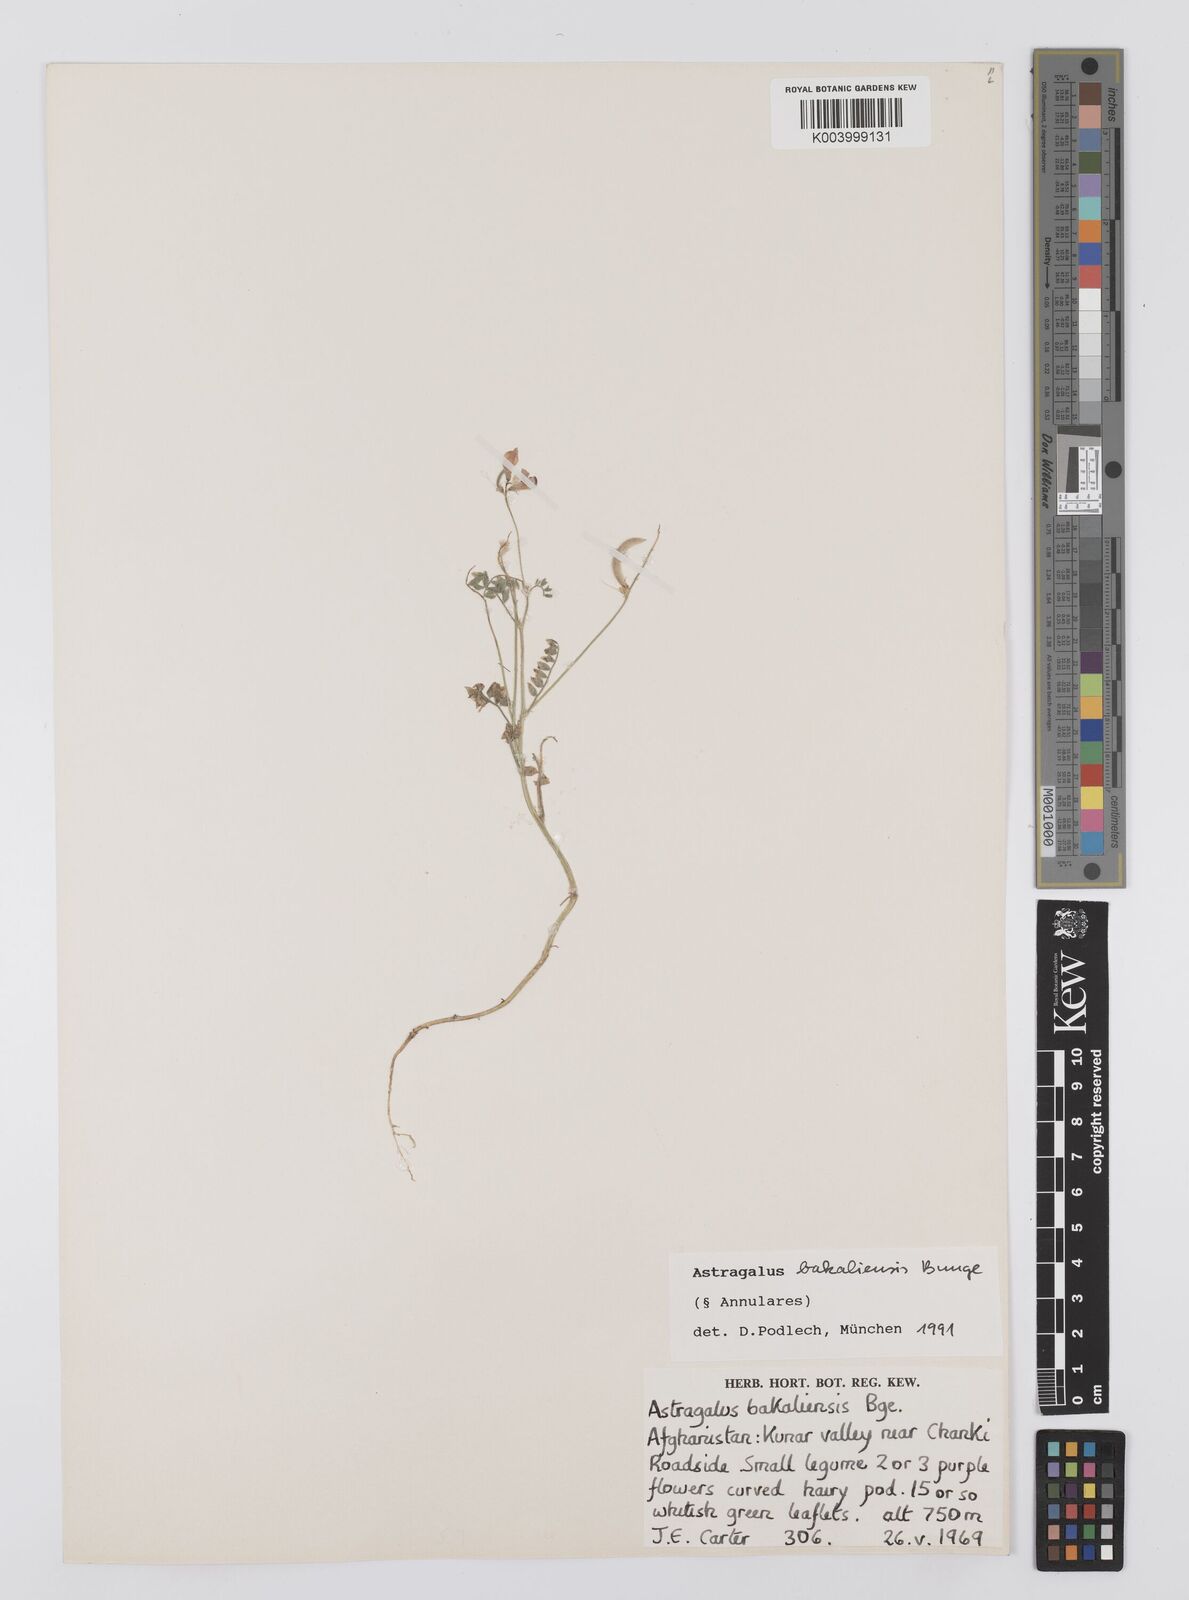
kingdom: Plantae
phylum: Tracheophyta
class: Magnoliopsida
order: Fabales
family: Fabaceae
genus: Astragalus
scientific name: Astragalus bakaliensis
